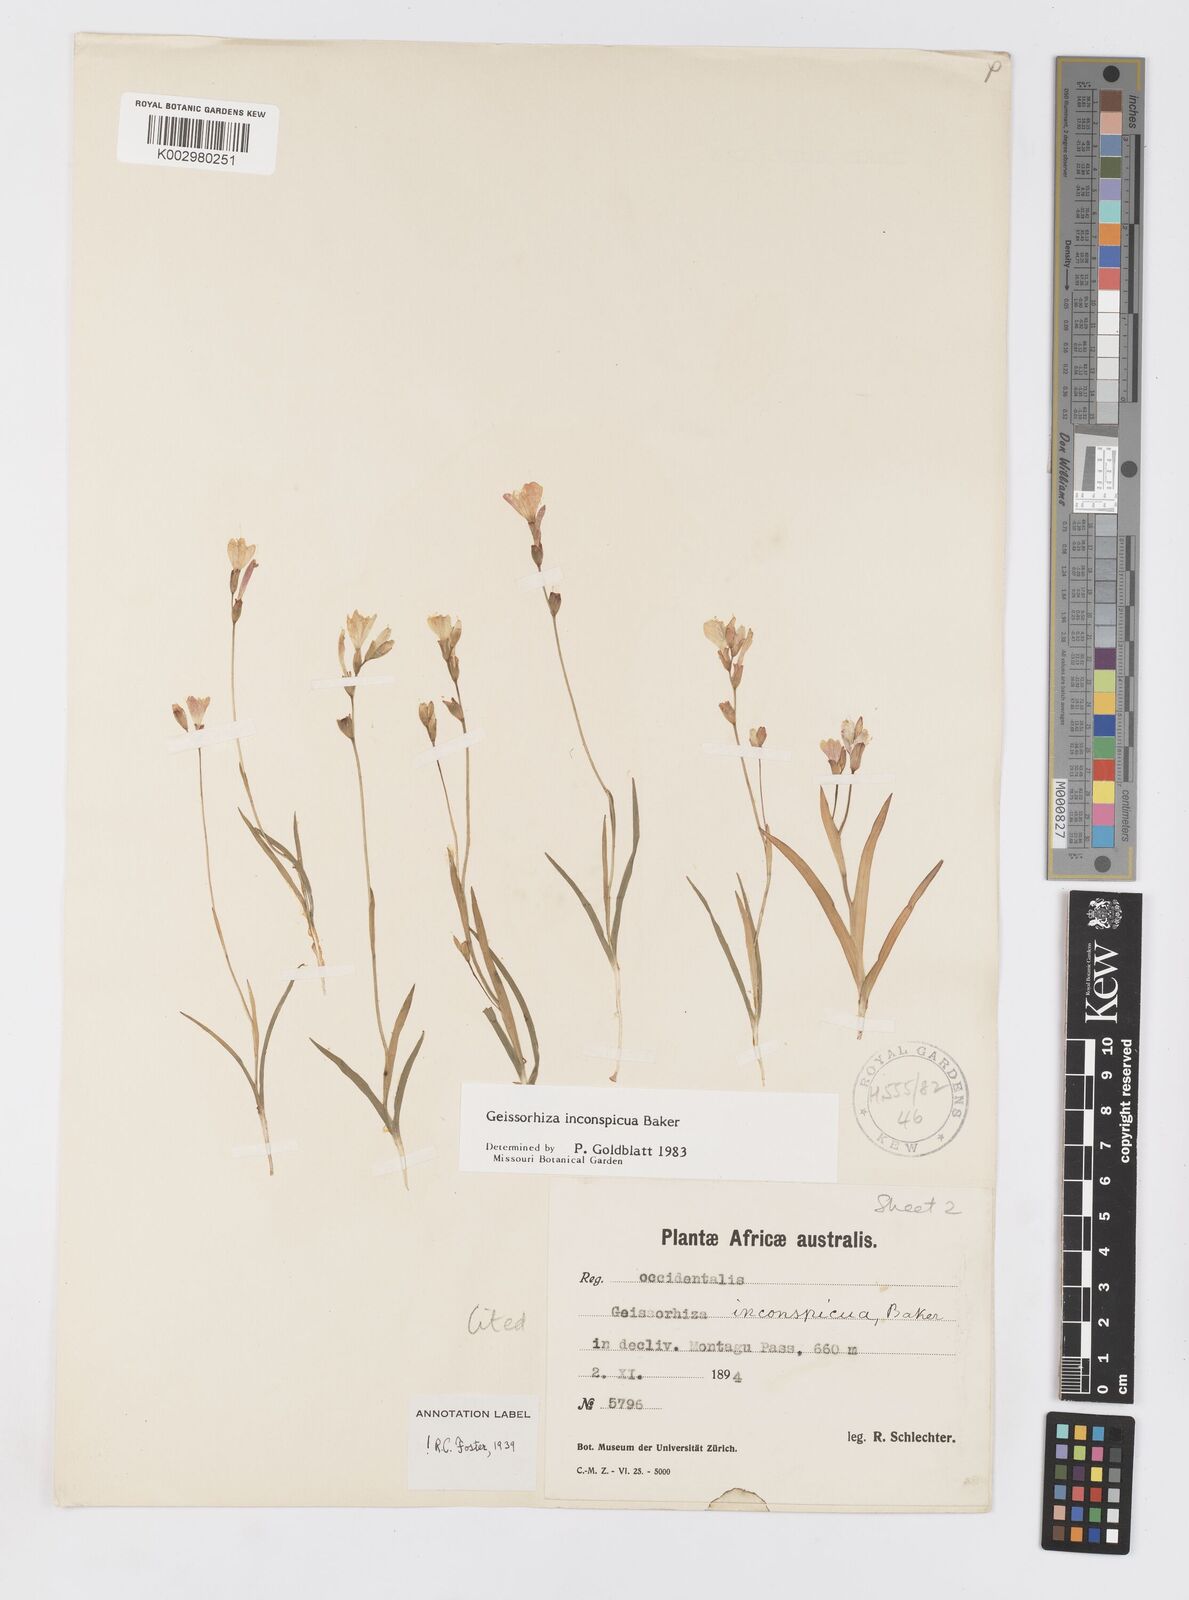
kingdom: Plantae
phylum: Tracheophyta
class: Liliopsida
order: Asparagales
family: Iridaceae
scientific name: Iridaceae
